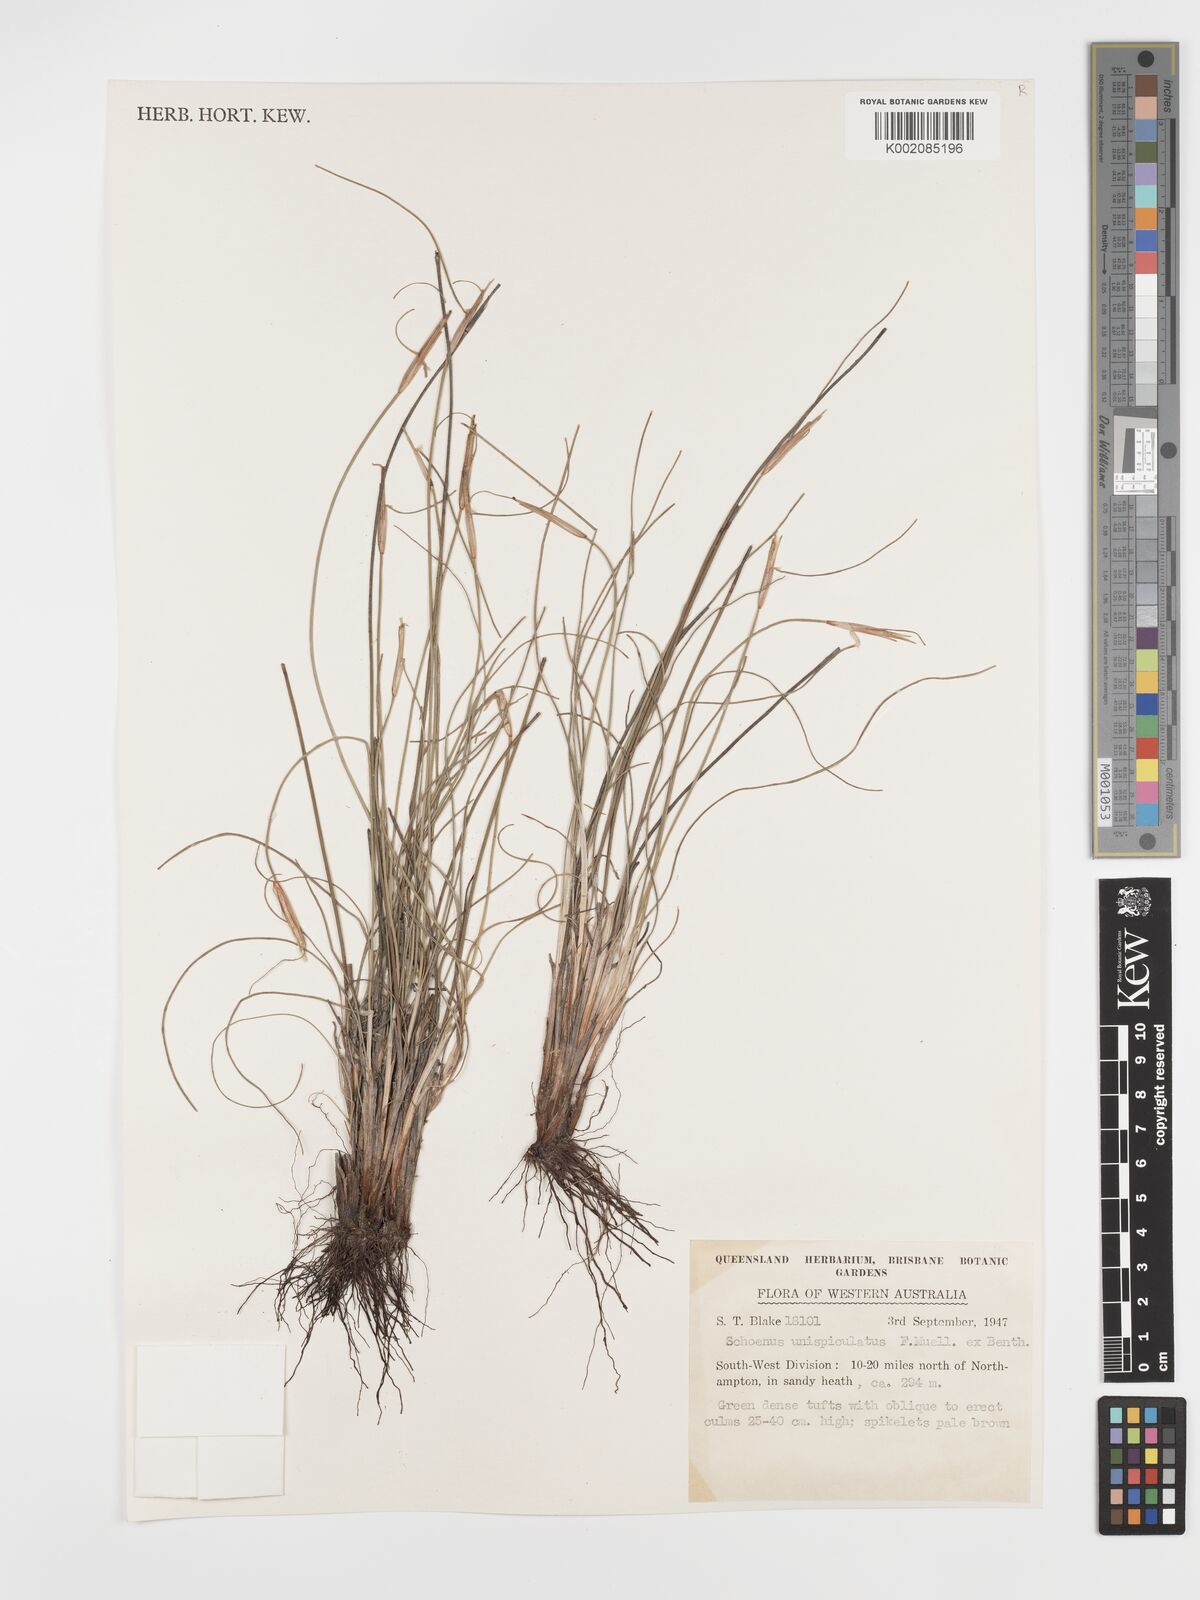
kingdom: Plantae
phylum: Tracheophyta
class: Liliopsida
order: Poales
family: Cyperaceae
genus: Schoenus
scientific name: Schoenus unispiculatus
